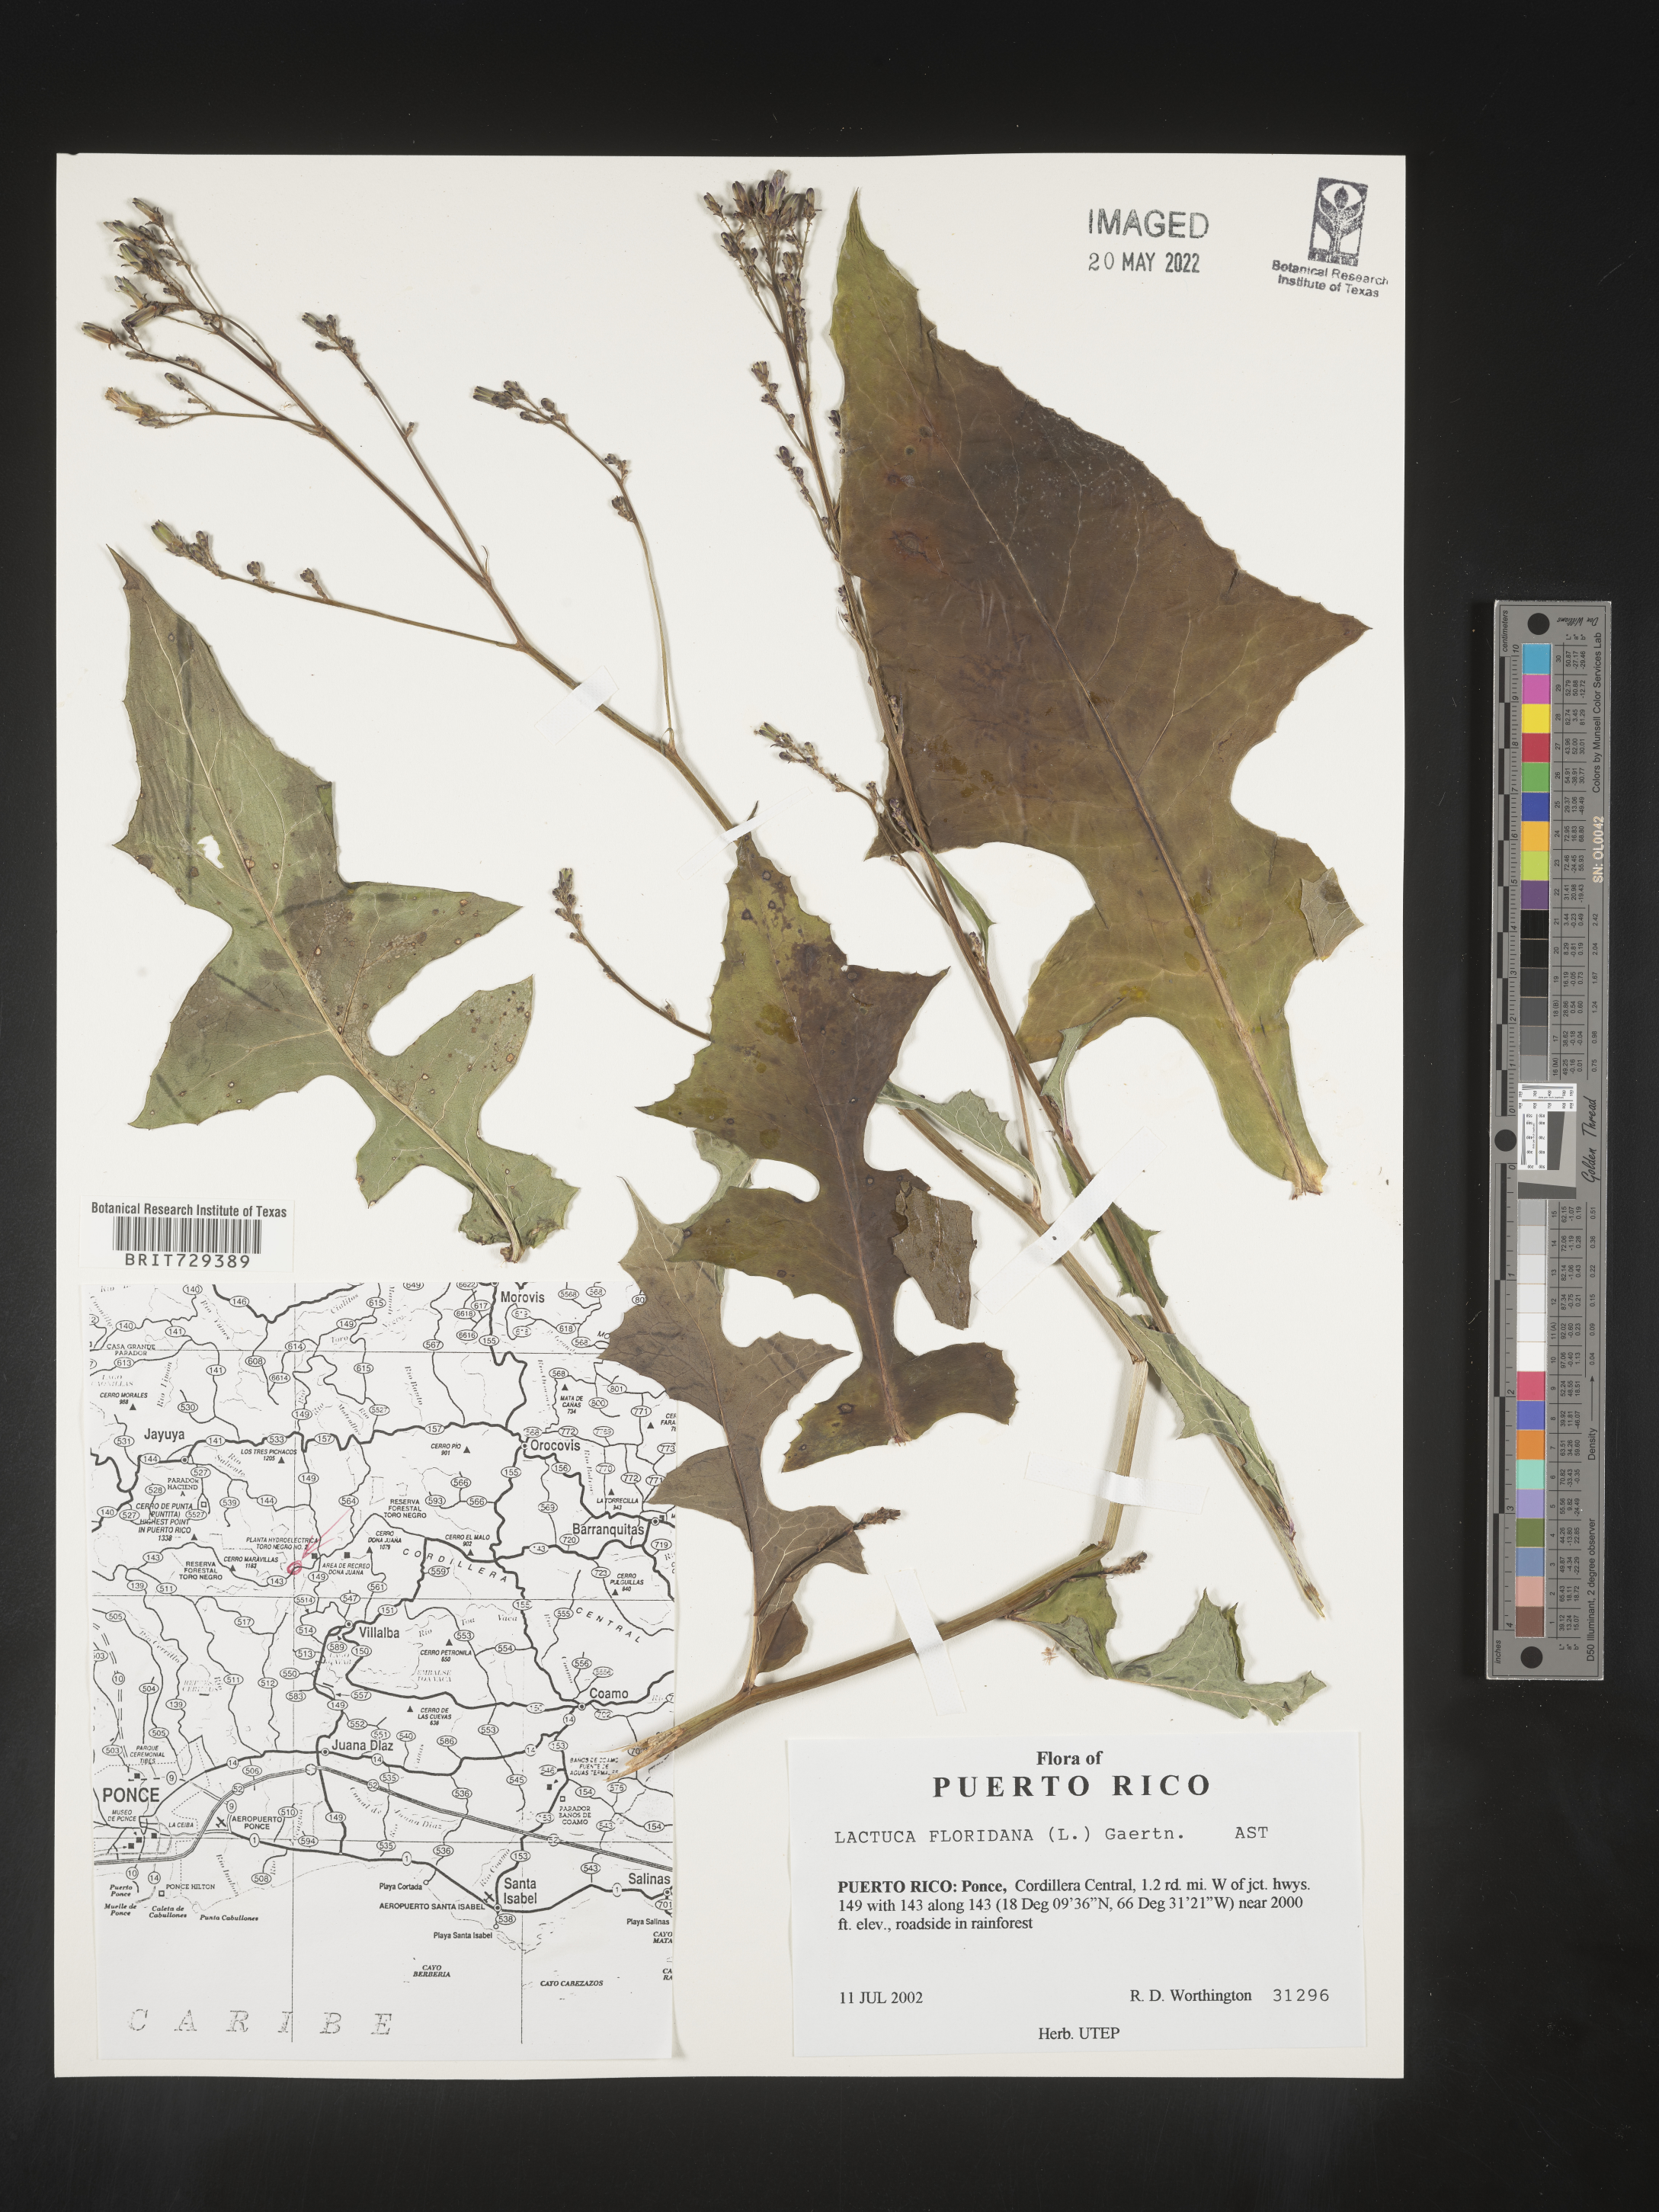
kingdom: Plantae
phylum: Tracheophyta
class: Magnoliopsida
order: Asterales
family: Asteraceae
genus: Lactuca
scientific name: Lactuca
